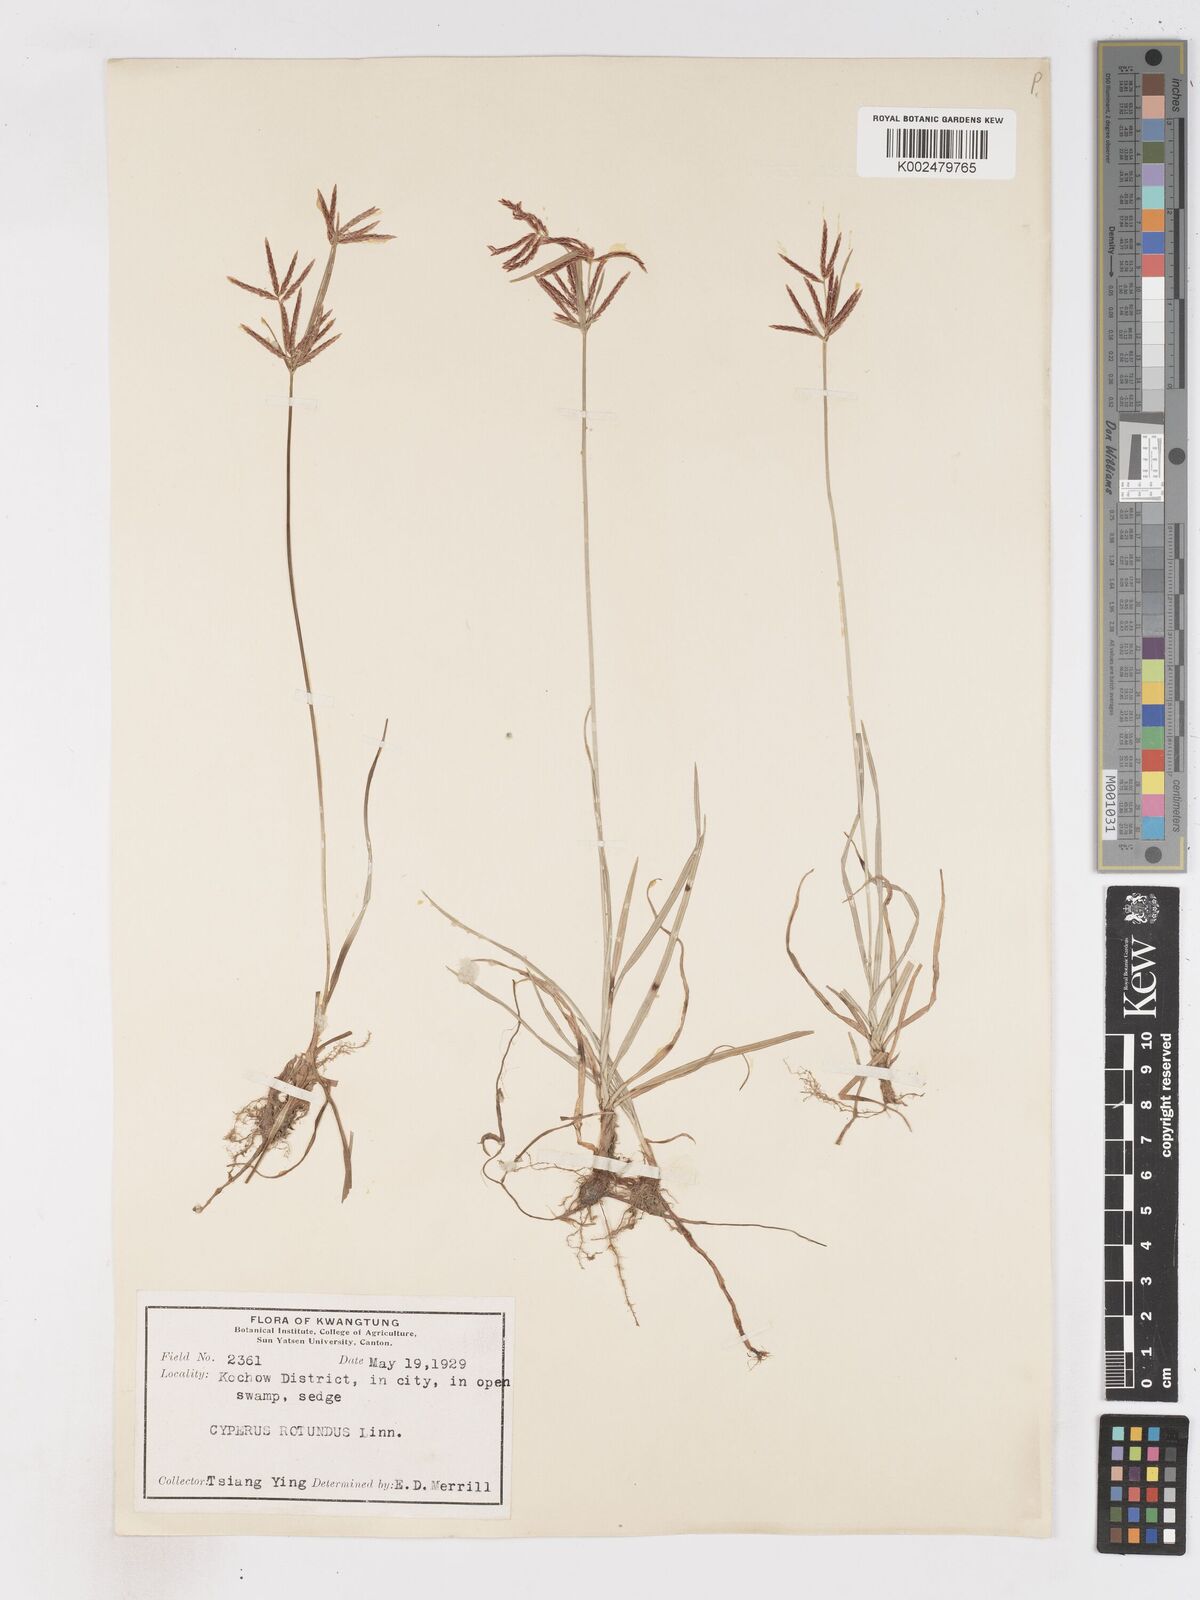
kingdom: Plantae
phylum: Tracheophyta
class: Liliopsida
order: Poales
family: Cyperaceae
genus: Cyperus
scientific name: Cyperus rotundus
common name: Nutgrass
